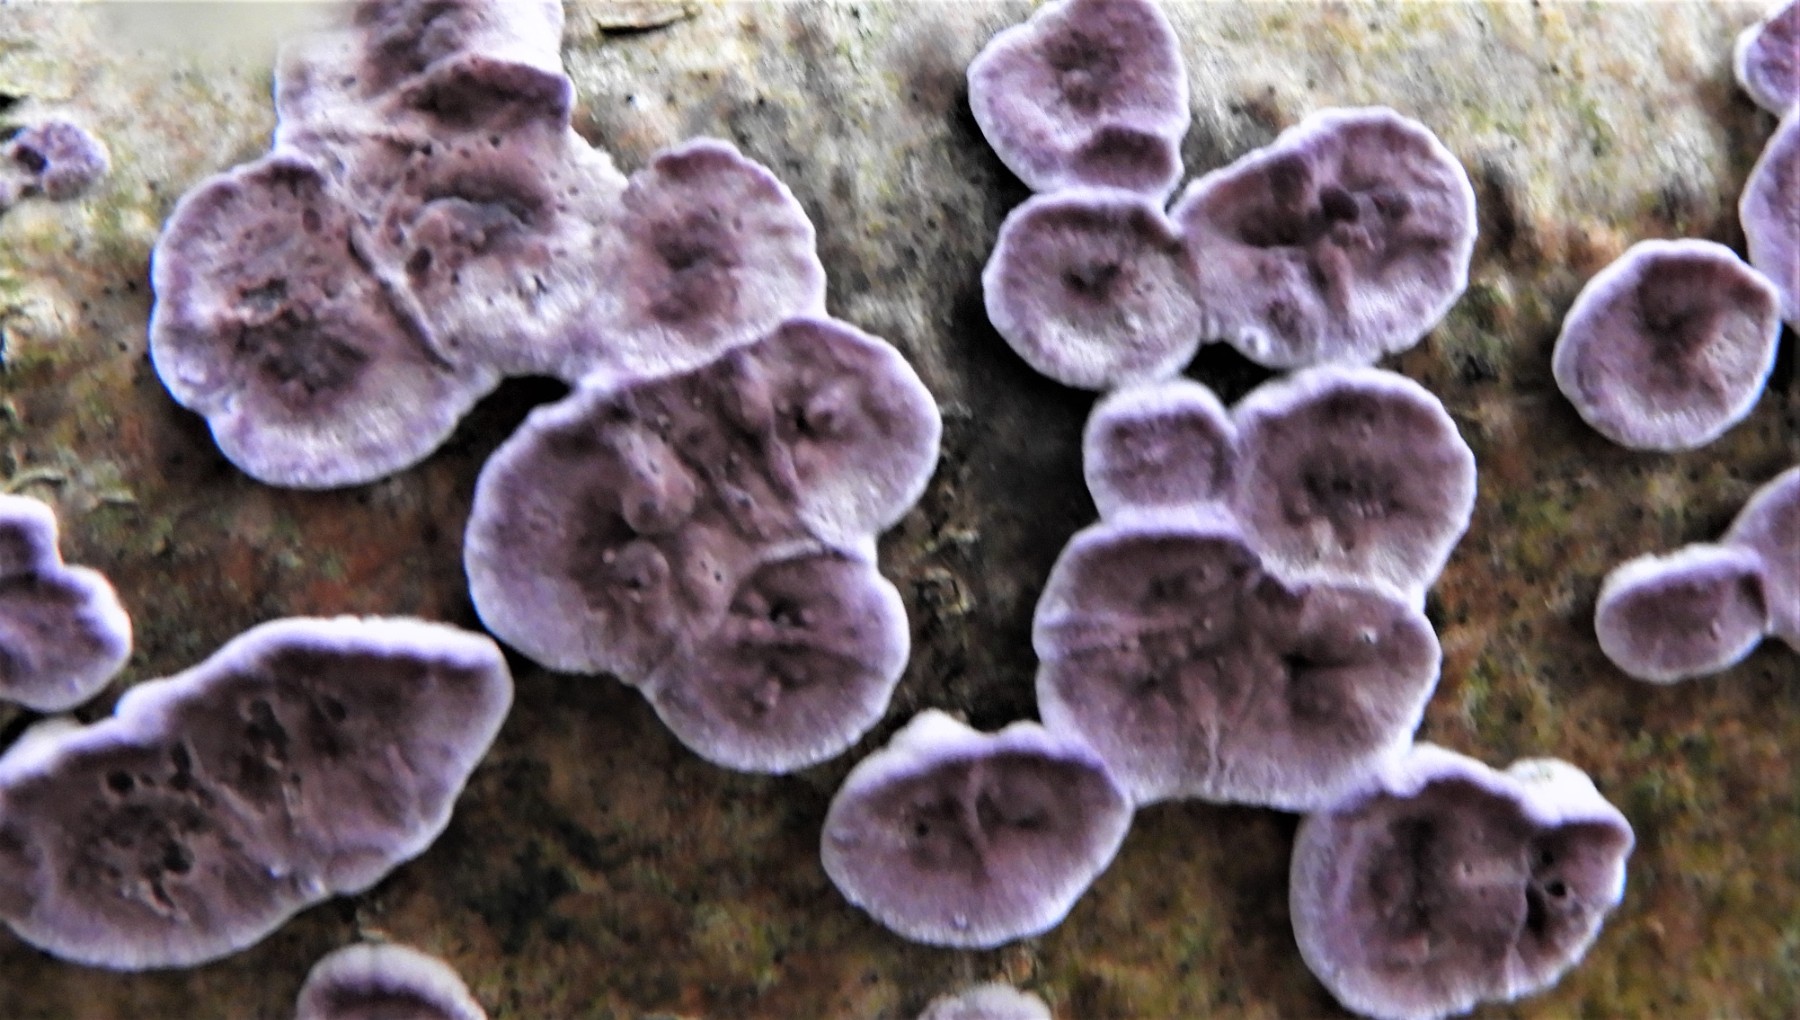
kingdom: Fungi
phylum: Basidiomycota
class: Agaricomycetes
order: Agaricales
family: Cyphellaceae
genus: Chondrostereum
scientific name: Chondrostereum purpureum
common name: purpurlædersvamp
